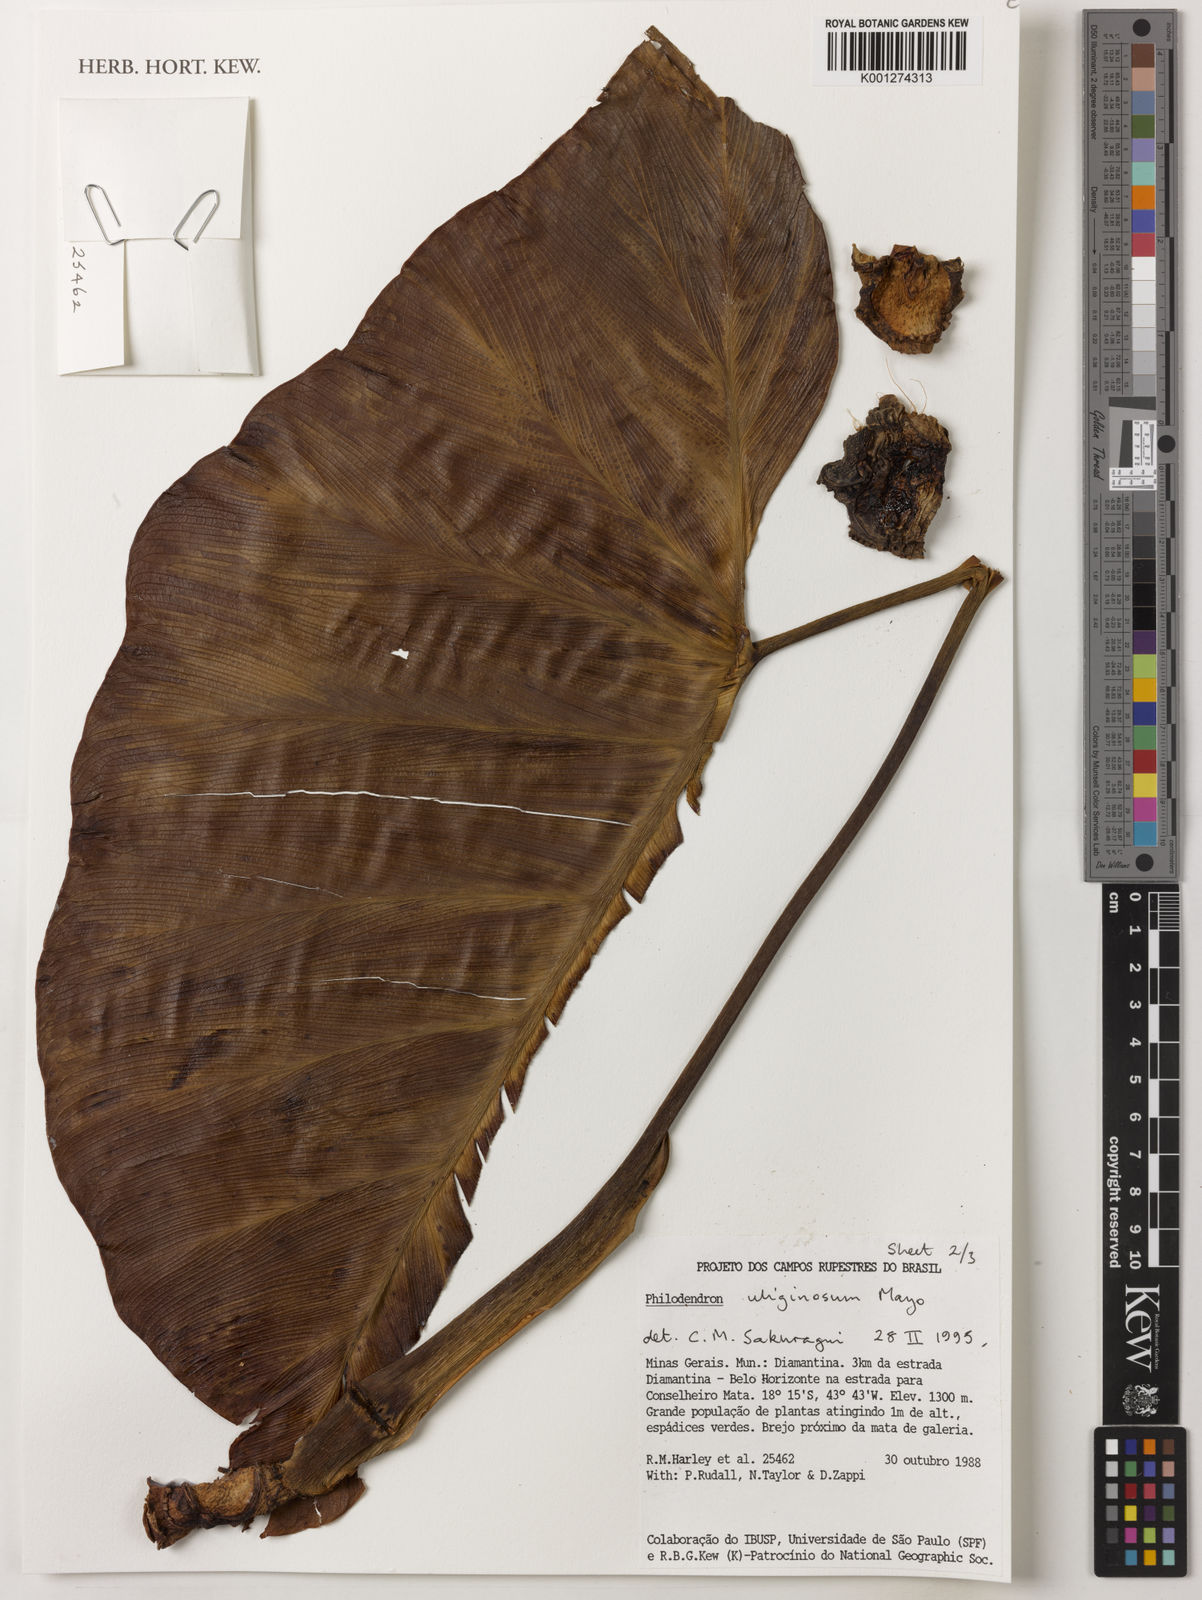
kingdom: Plantae
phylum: Tracheophyta
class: Liliopsida
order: Alismatales
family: Araceae
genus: Thaumatophyllum
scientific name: Thaumatophyllum uliginosum
